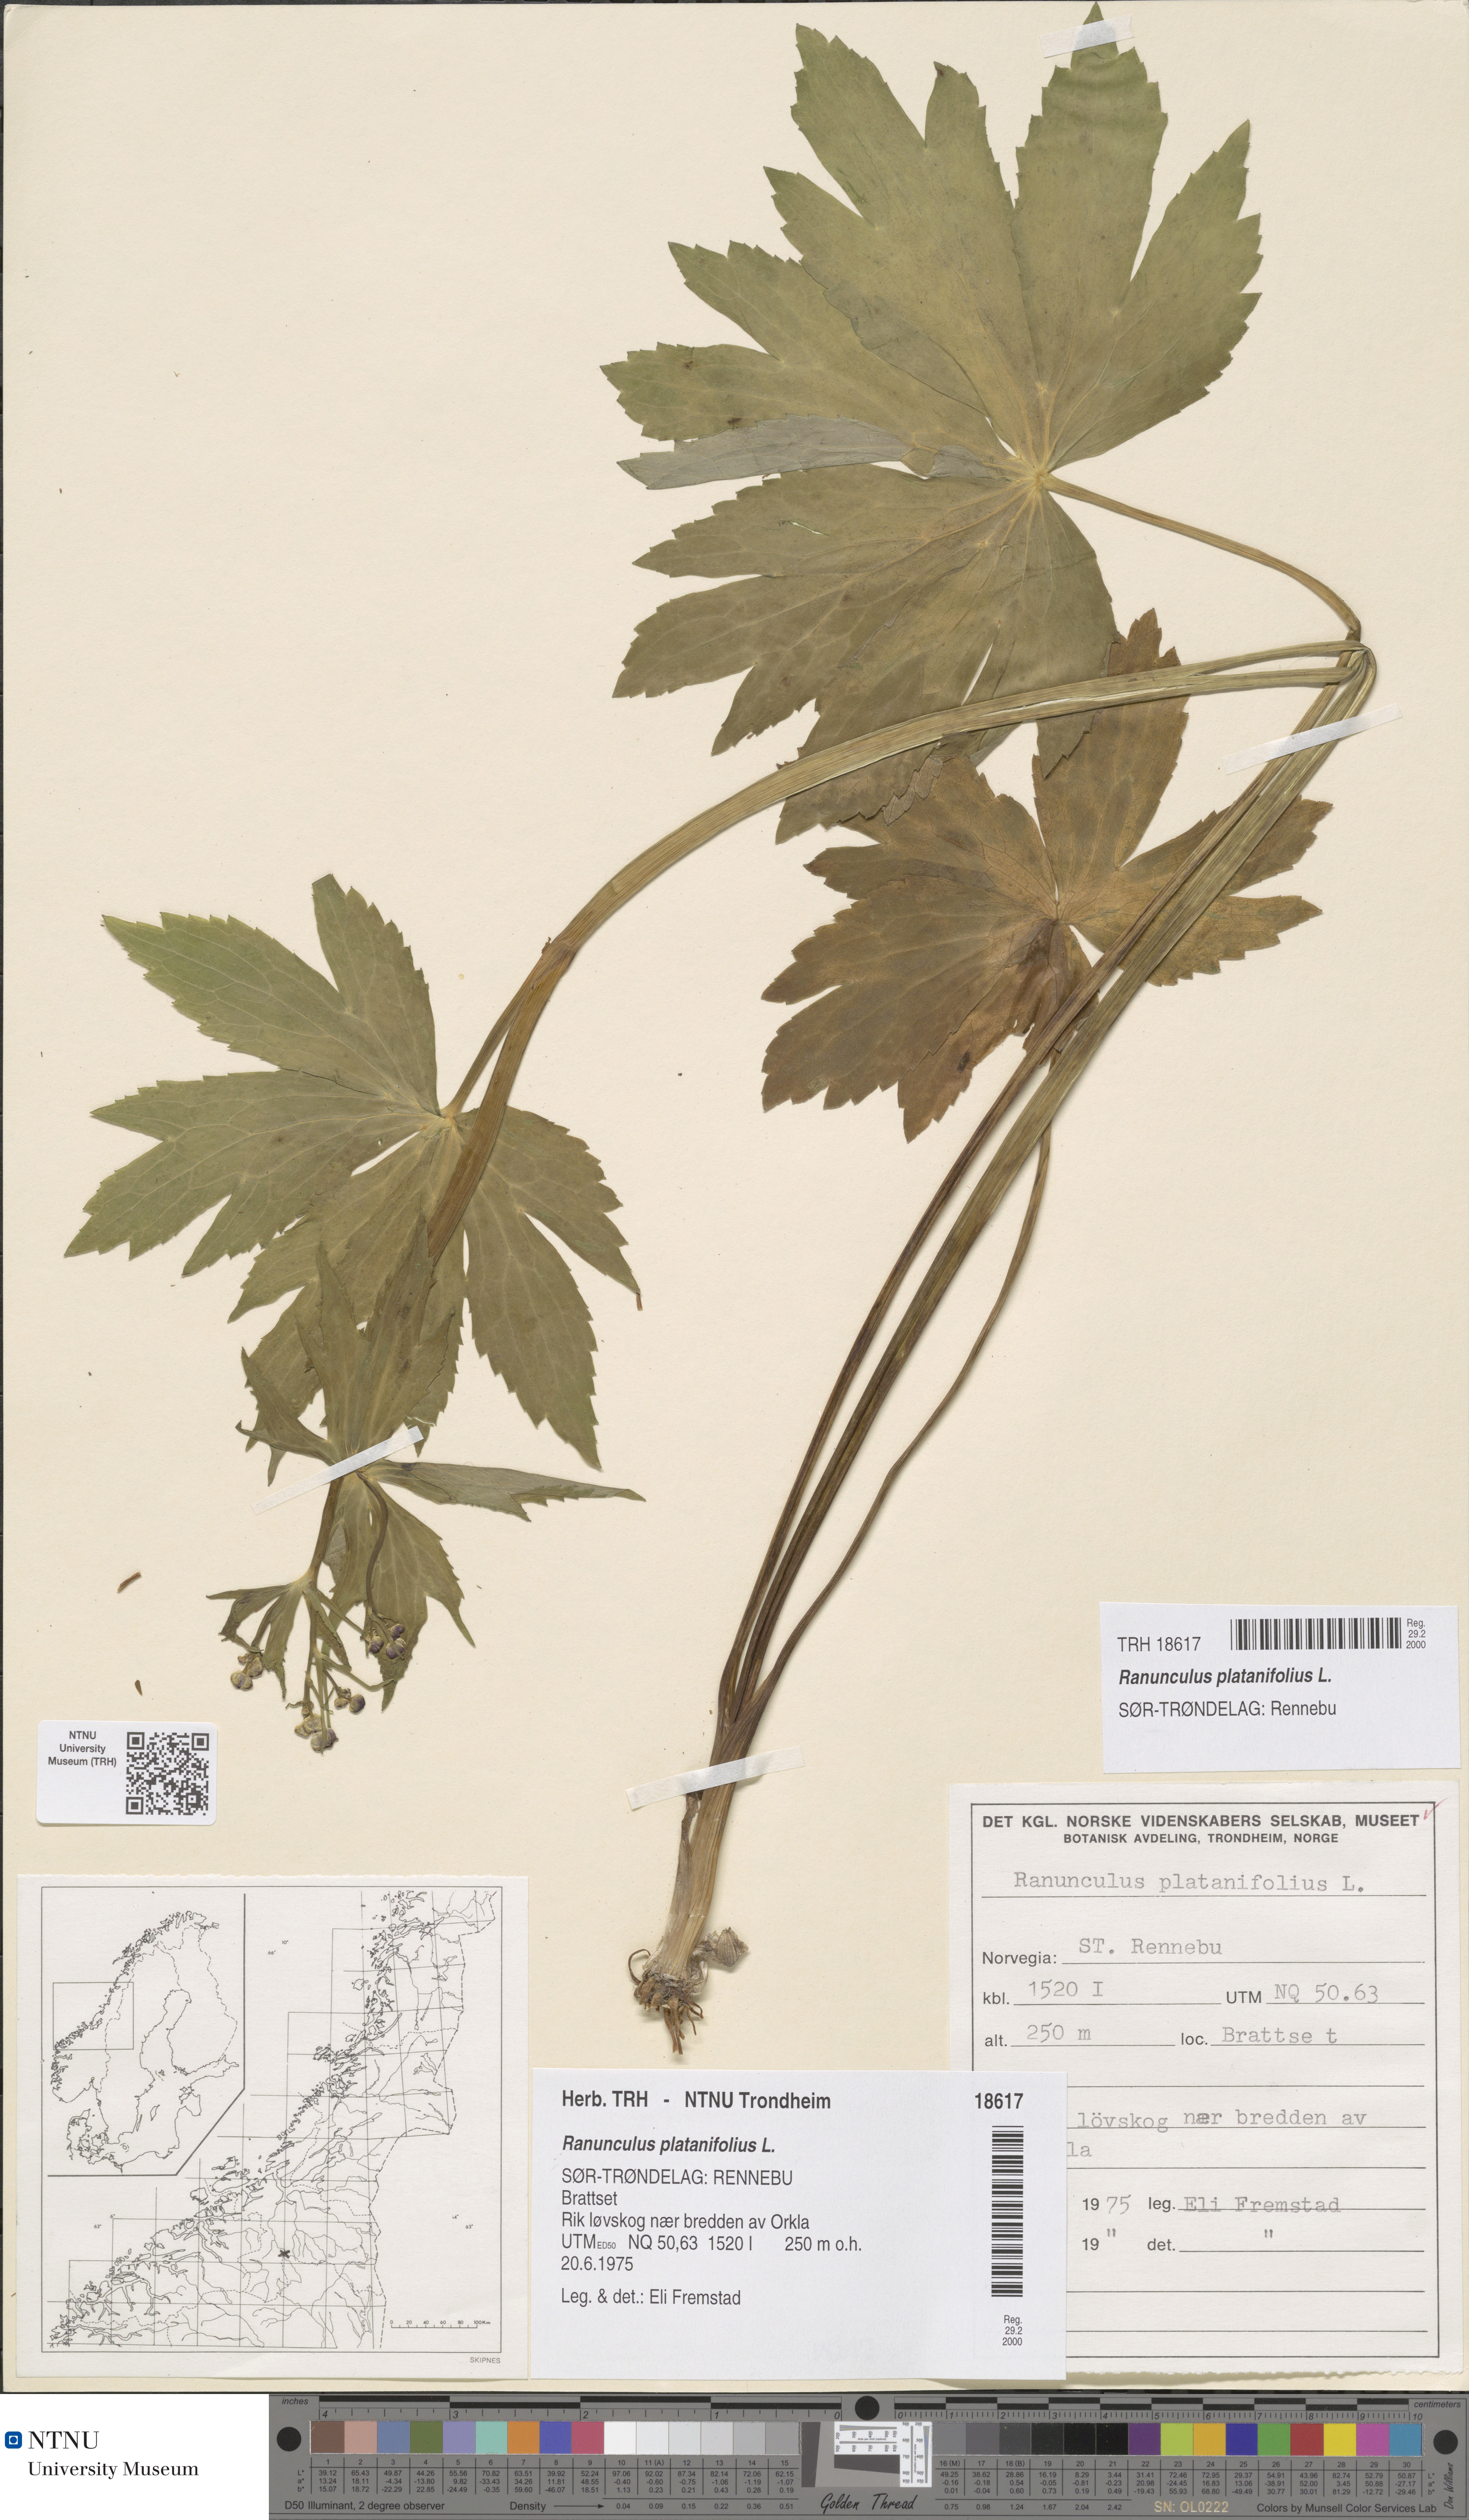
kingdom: Plantae
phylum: Tracheophyta
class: Magnoliopsida
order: Ranunculales
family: Ranunculaceae
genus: Ranunculus
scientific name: Ranunculus platanifolius
